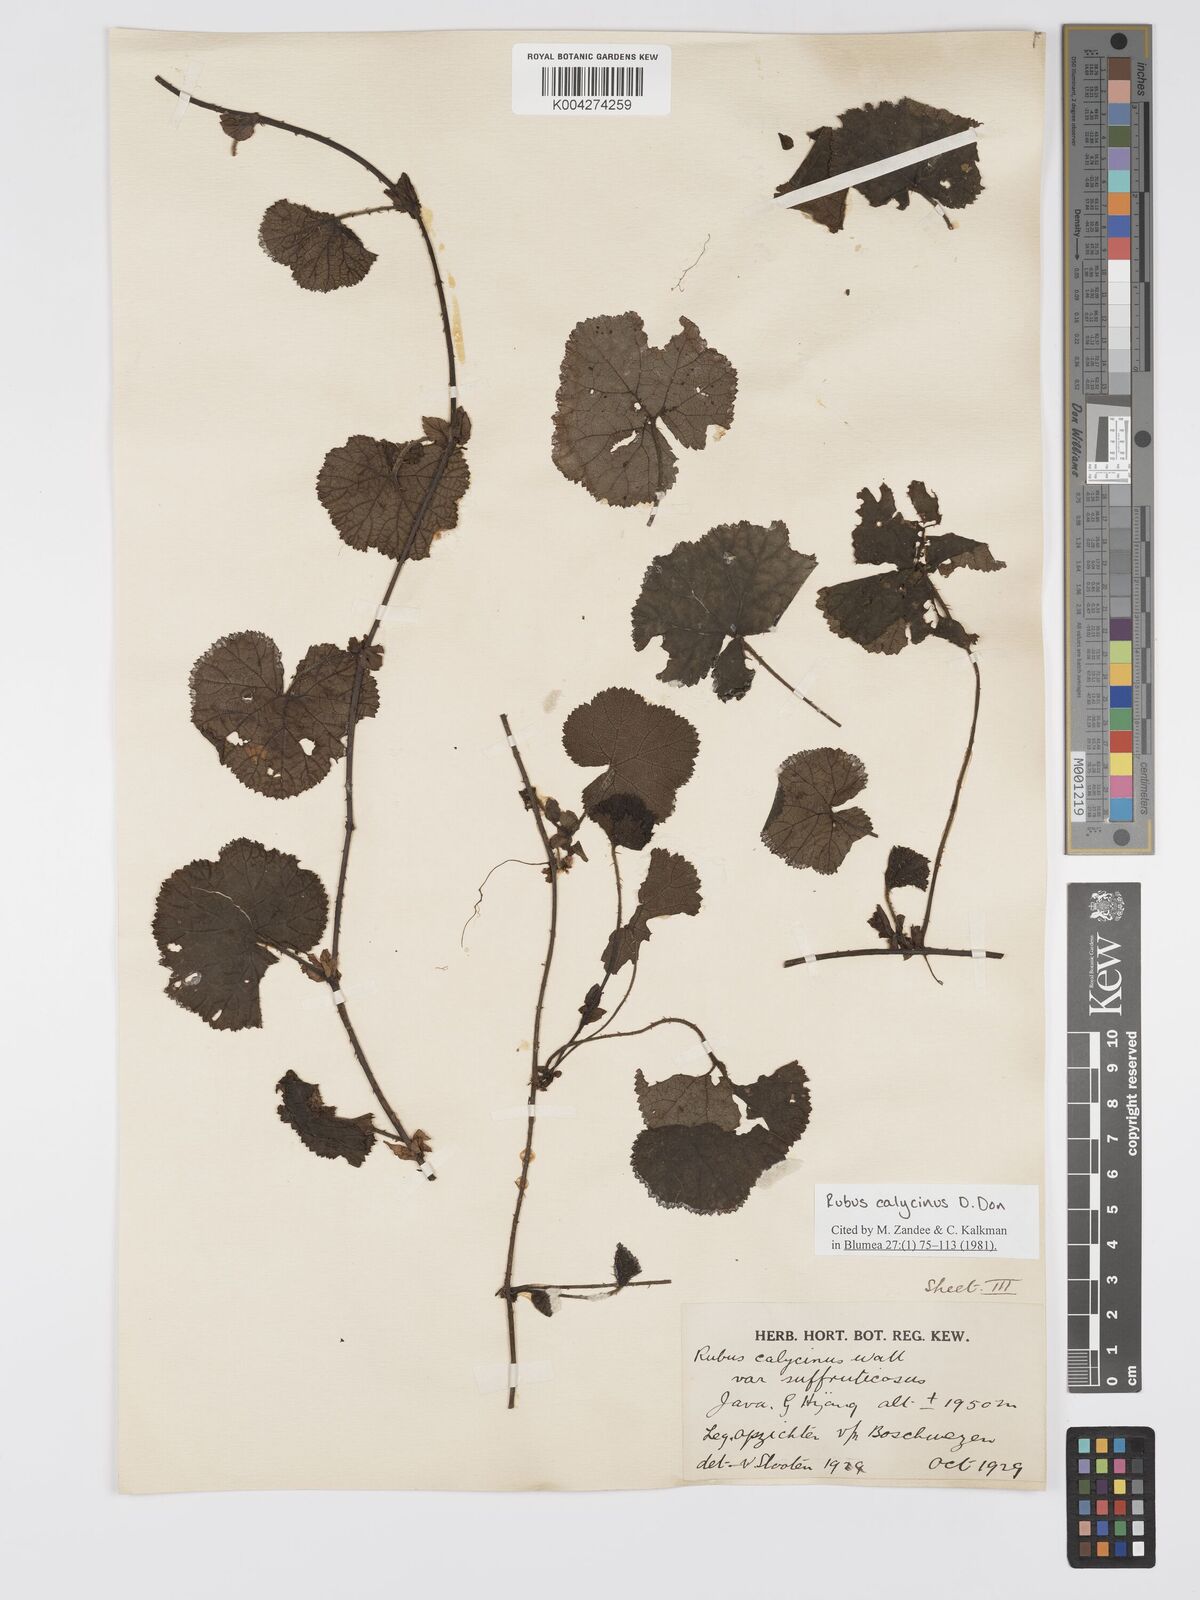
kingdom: Plantae
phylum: Tracheophyta
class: Magnoliopsida
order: Rosales
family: Rosaceae
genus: Rubus
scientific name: Rubus calycinus
